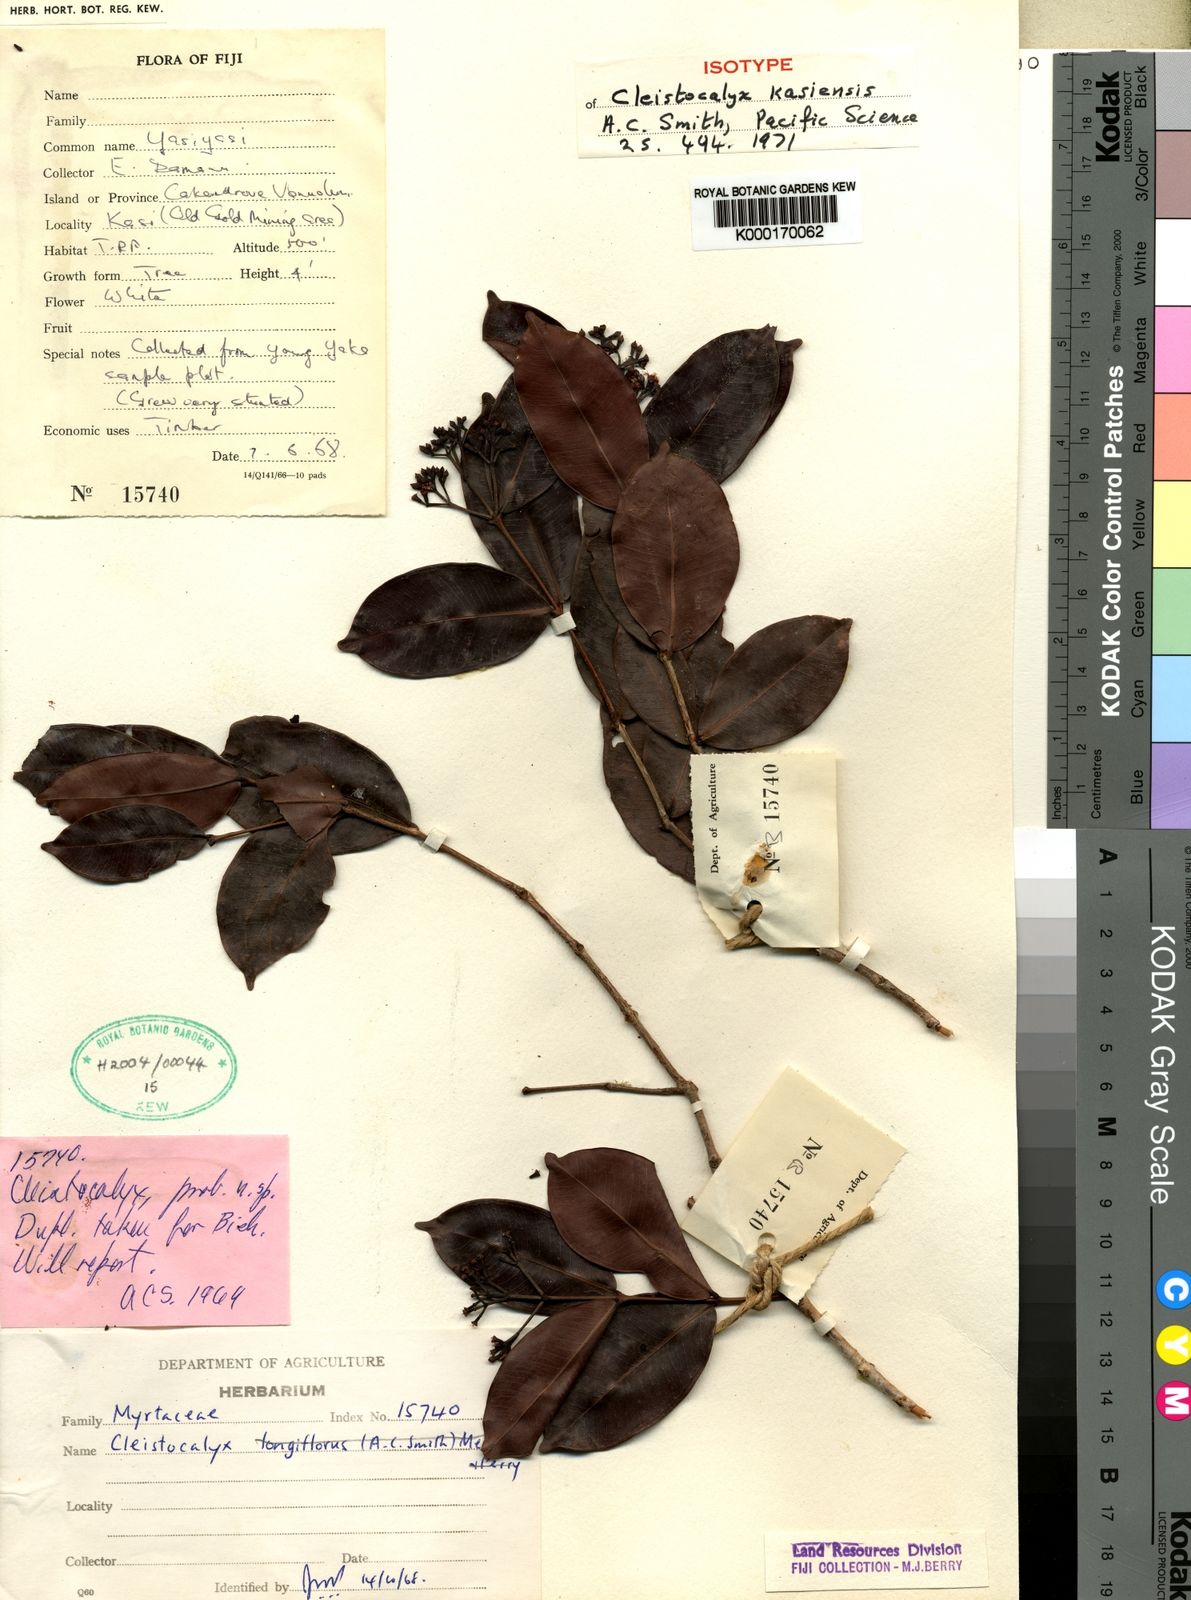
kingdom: Plantae
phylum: Tracheophyta
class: Magnoliopsida
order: Myrtales
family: Myrtaceae
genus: Syzygium
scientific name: Syzygium seemannii
